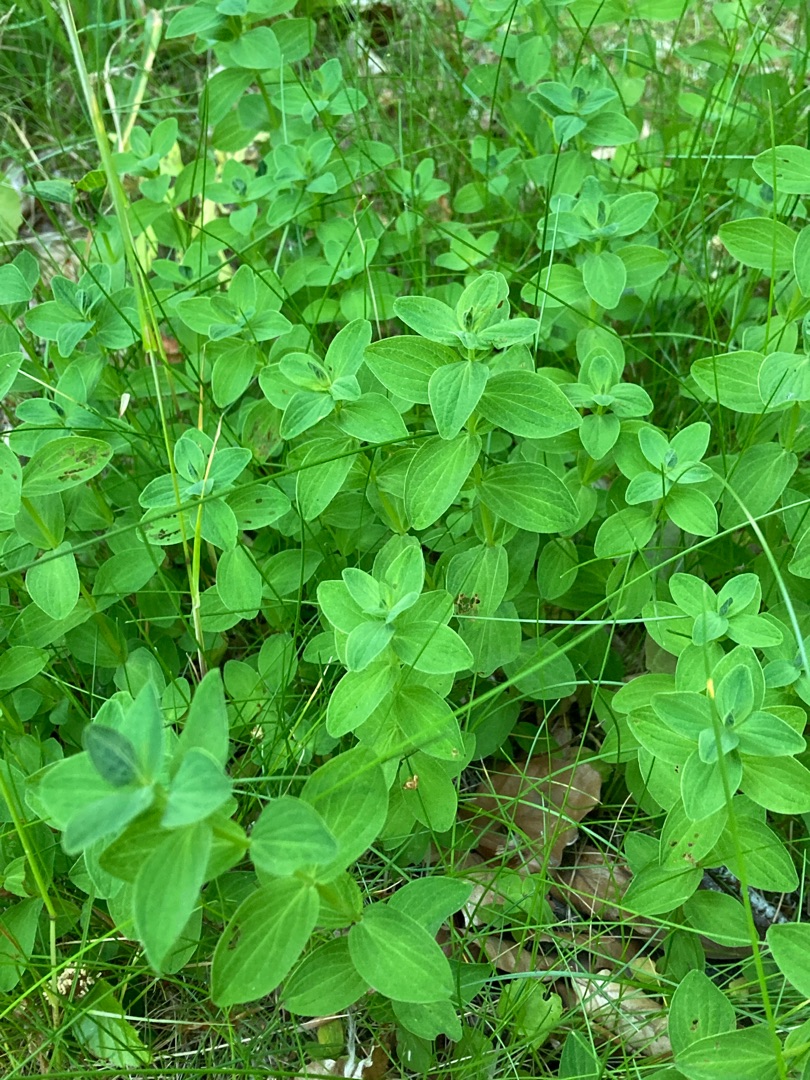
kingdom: Plantae
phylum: Tracheophyta
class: Magnoliopsida
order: Malpighiales
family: Hypericaceae
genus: Hypericum
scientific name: Hypericum maculatum
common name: Kantet perikon
